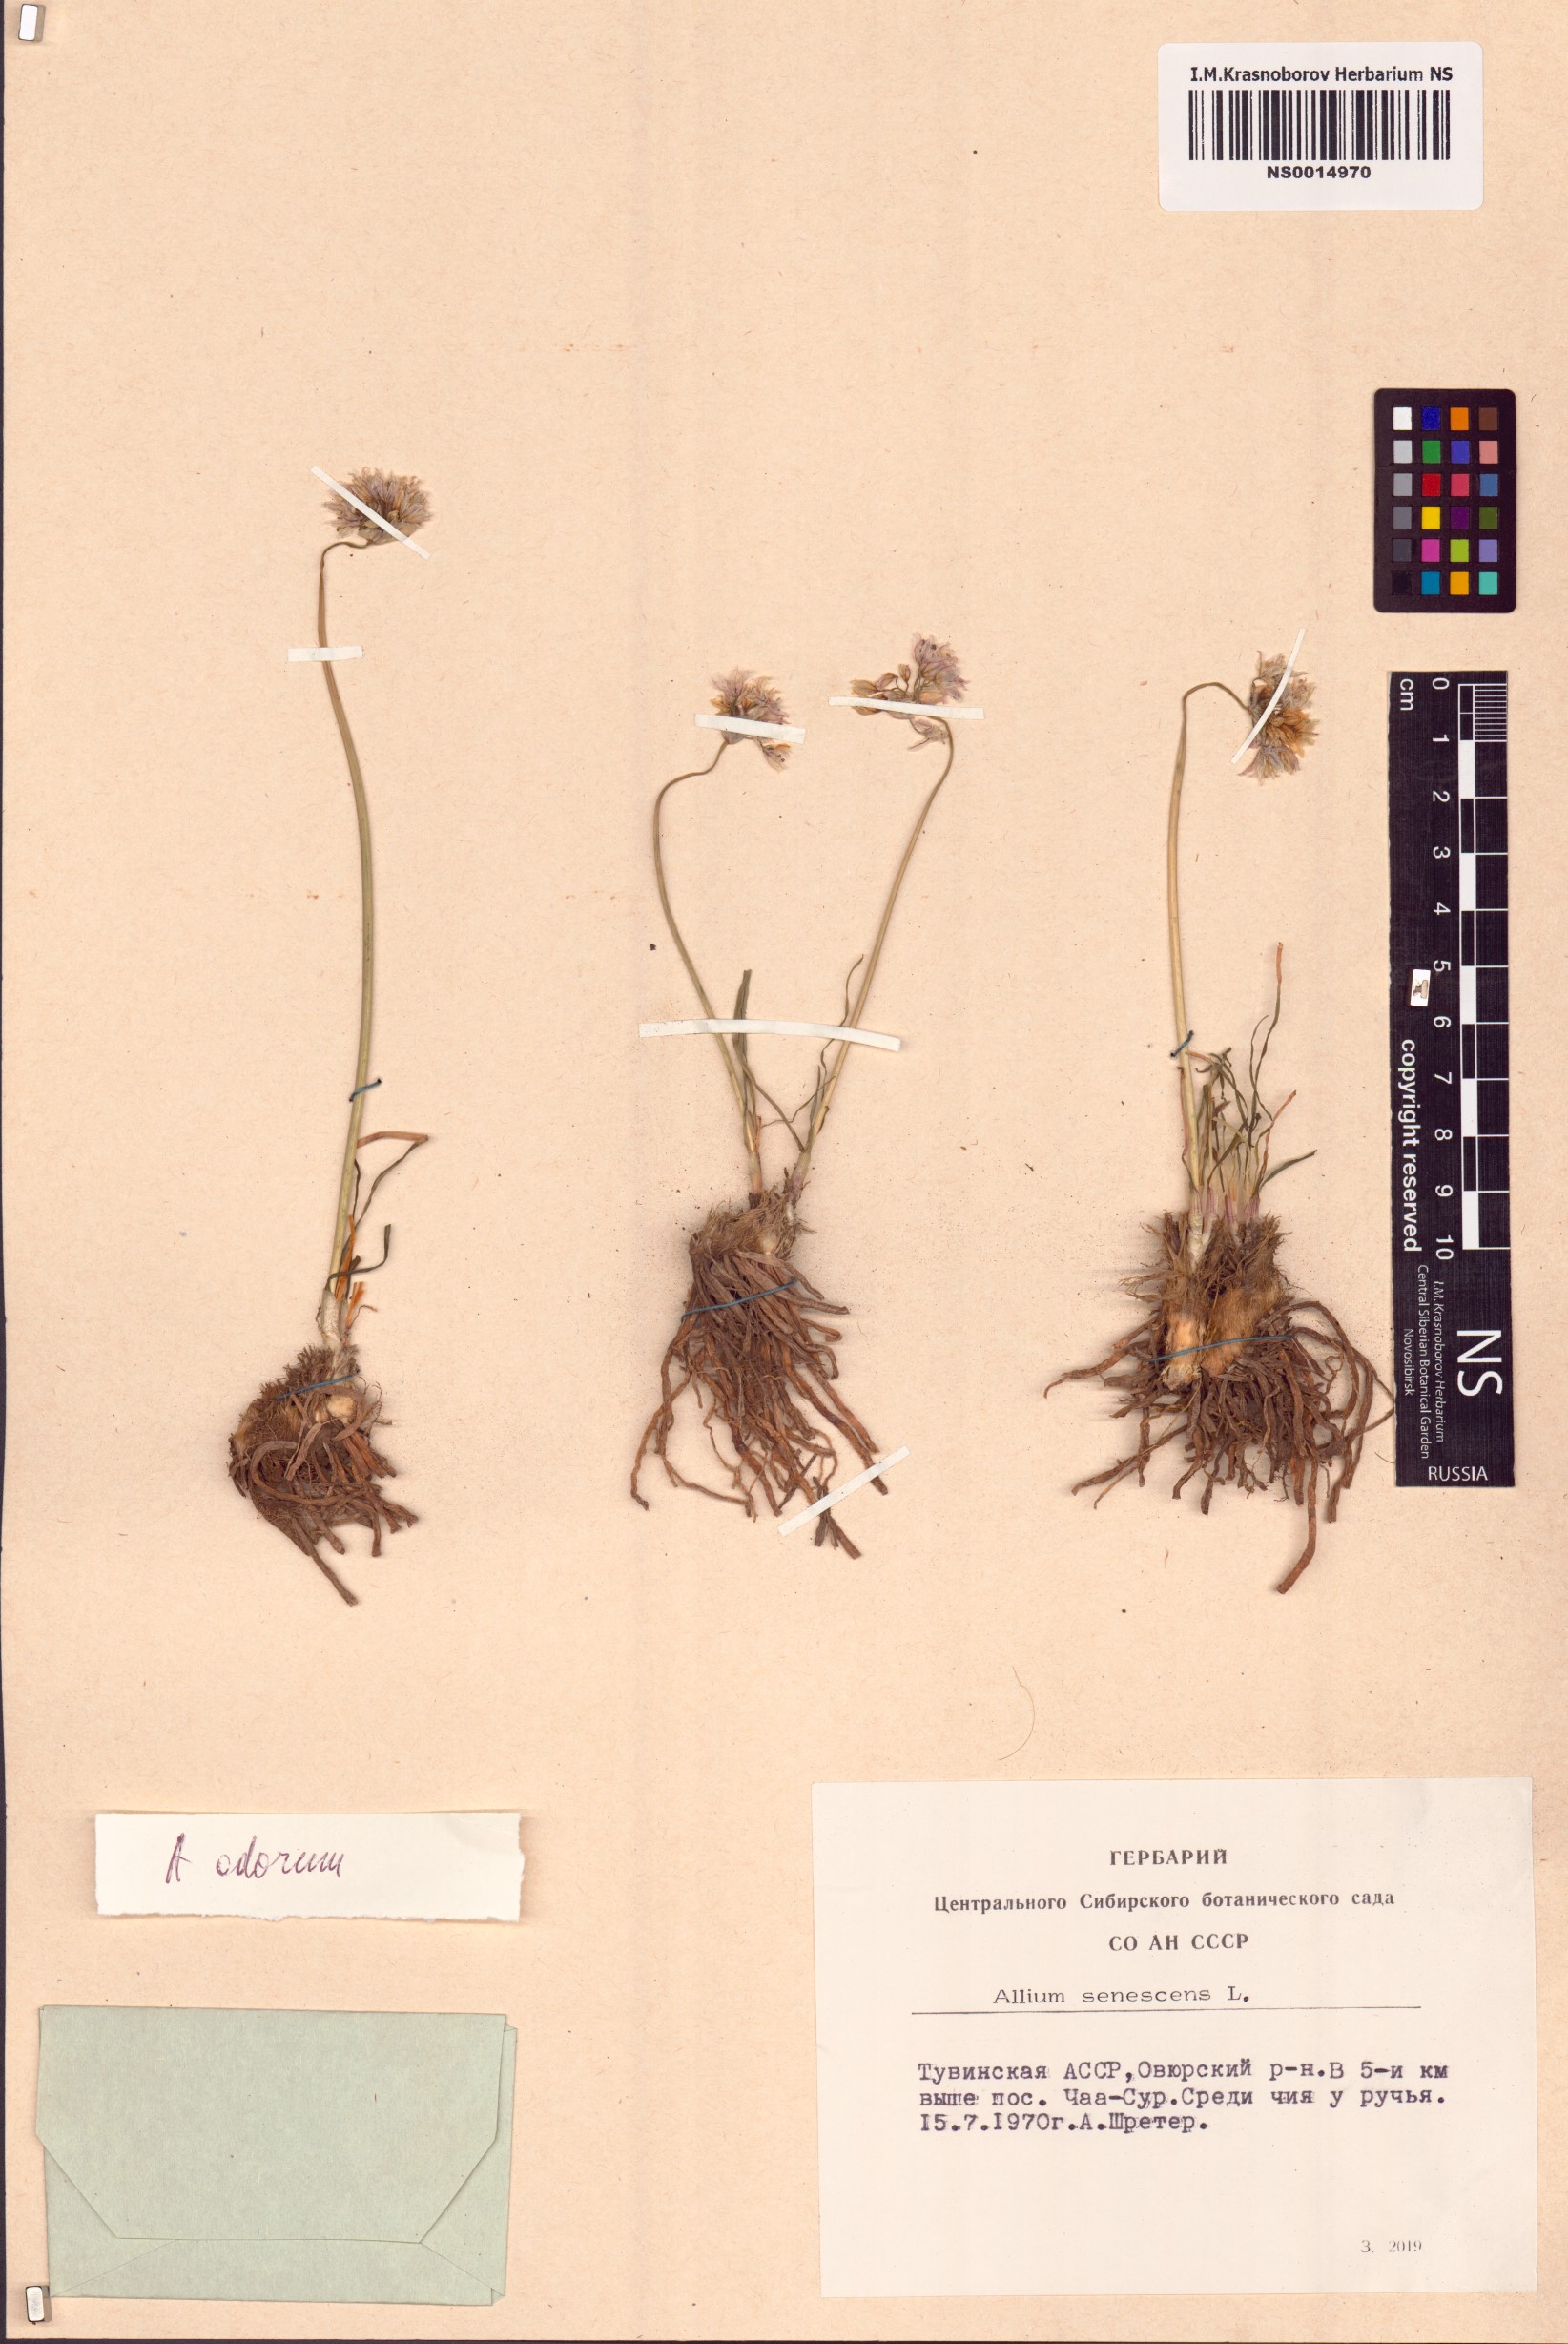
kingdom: Plantae
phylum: Tracheophyta
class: Liliopsida
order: Asparagales
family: Amaryllidaceae
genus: Allium
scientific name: Allium ramosum
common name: Fragrant garlic
